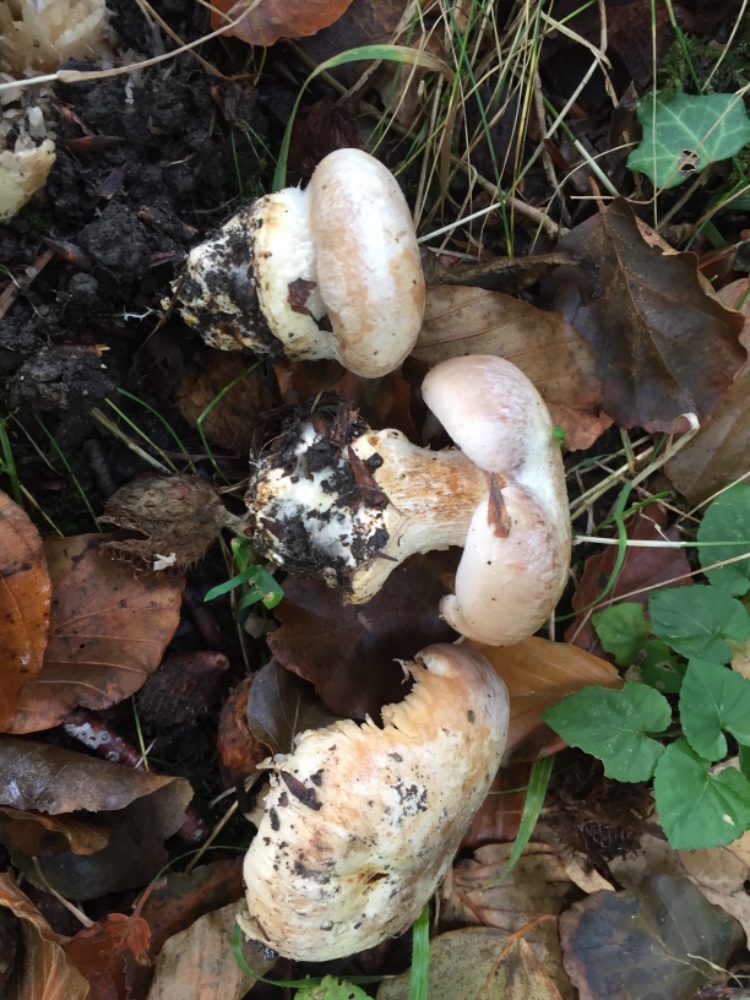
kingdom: Fungi
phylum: Basidiomycota
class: Agaricomycetes
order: Agaricales
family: Cortinariaceae
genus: Cortinarius
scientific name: Cortinarius foetens
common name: stribet slørhat
